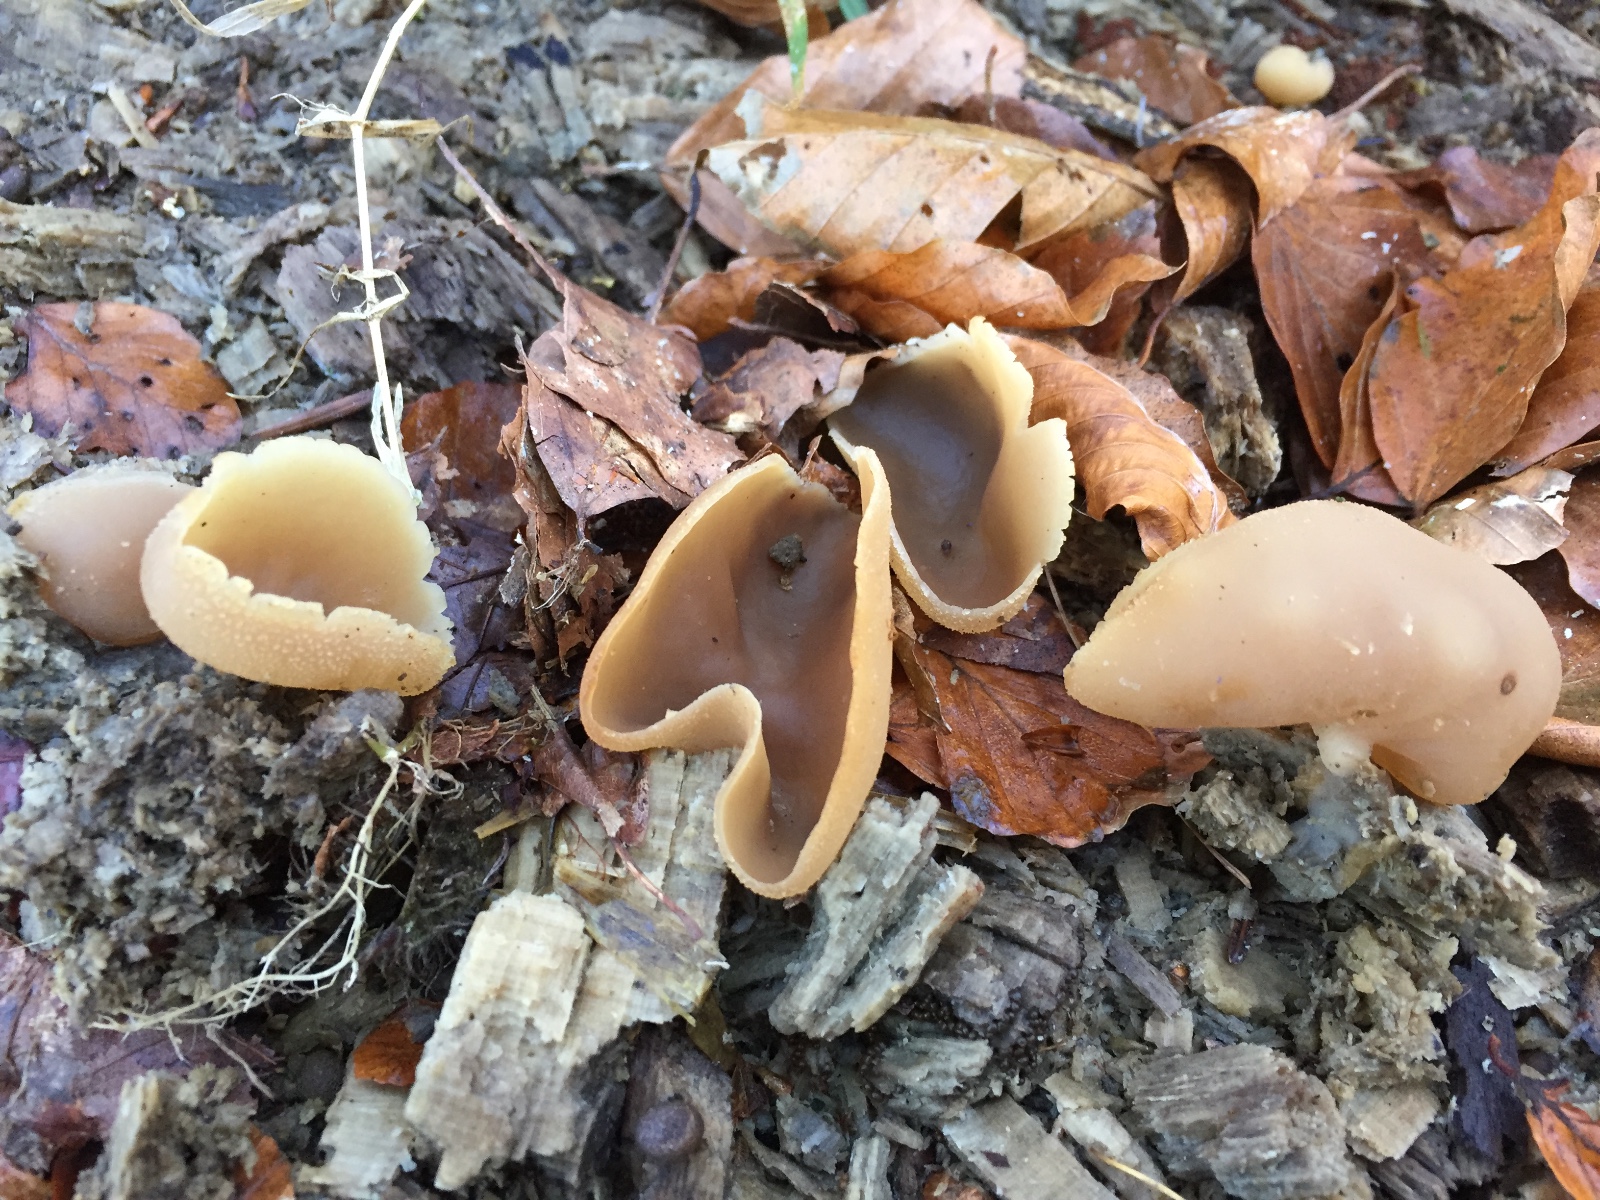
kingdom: Fungi
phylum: Ascomycota
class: Pezizomycetes
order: Pezizales
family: Pezizaceae
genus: Peziza
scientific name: Peziza varia
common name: Ved-bægersvamp
